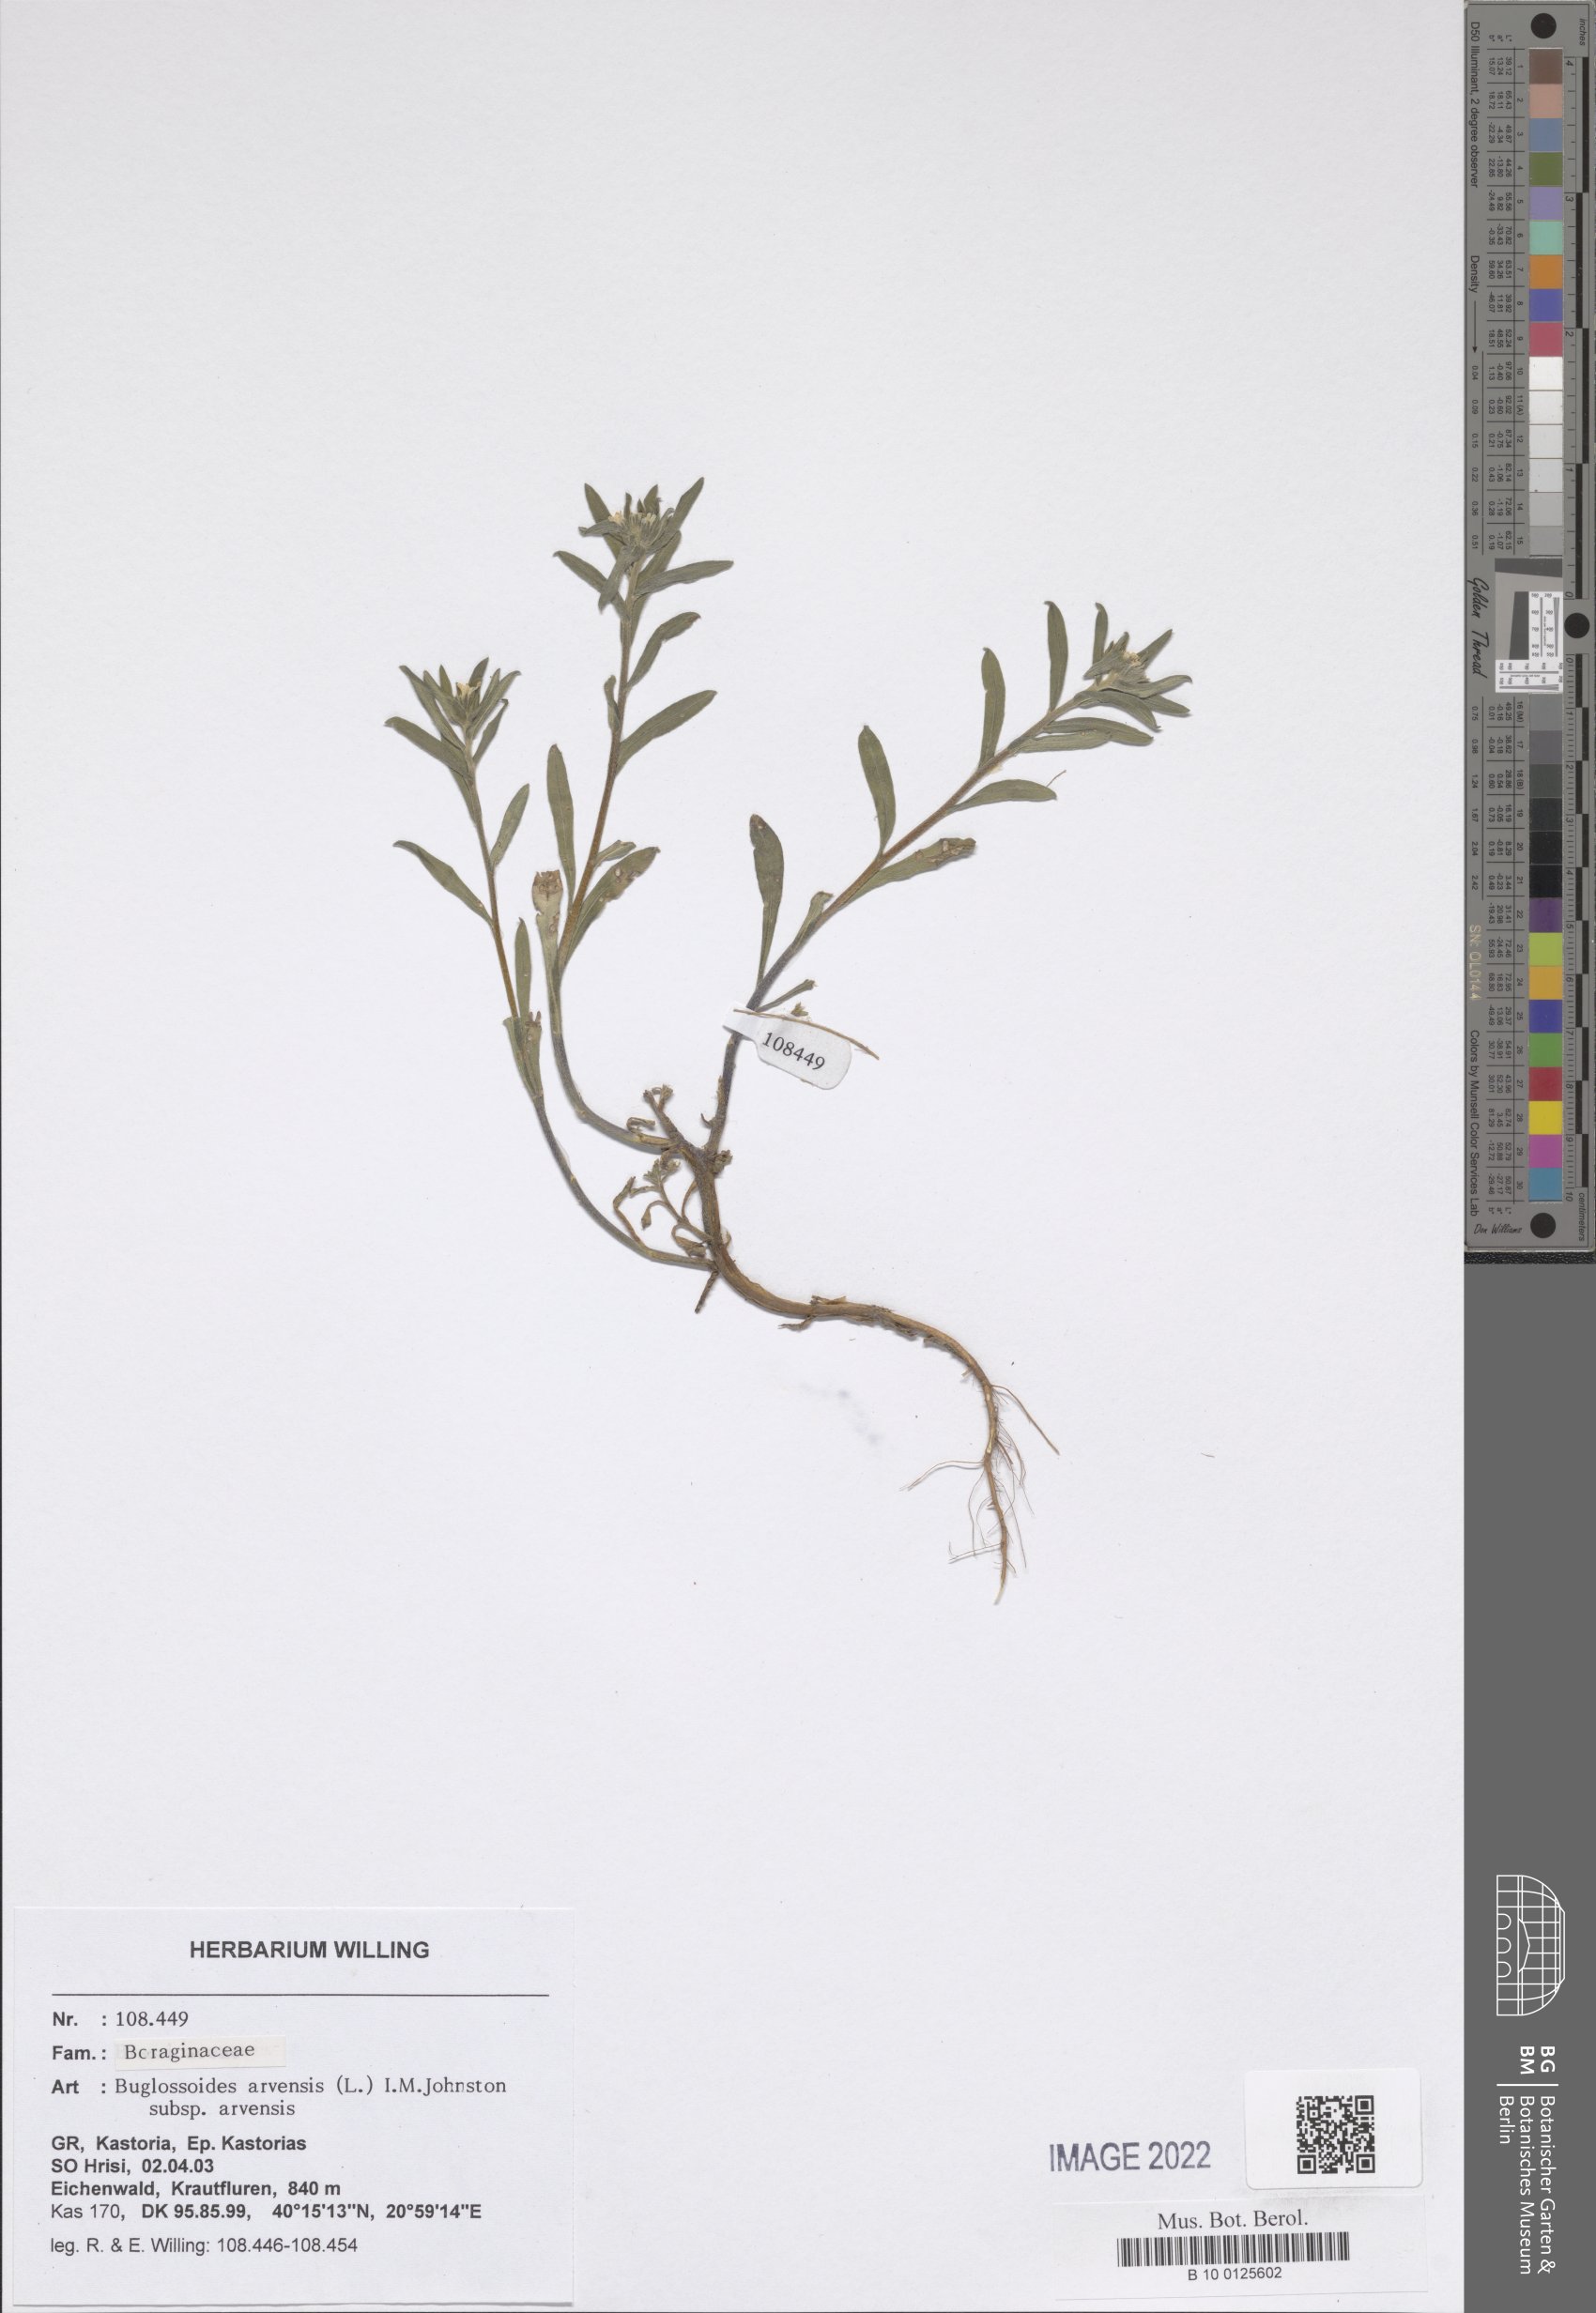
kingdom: Plantae
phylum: Tracheophyta
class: Magnoliopsida
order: Boraginales
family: Boraginaceae
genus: Buglossoides
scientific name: Buglossoides arvensis
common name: Corn gromwell
